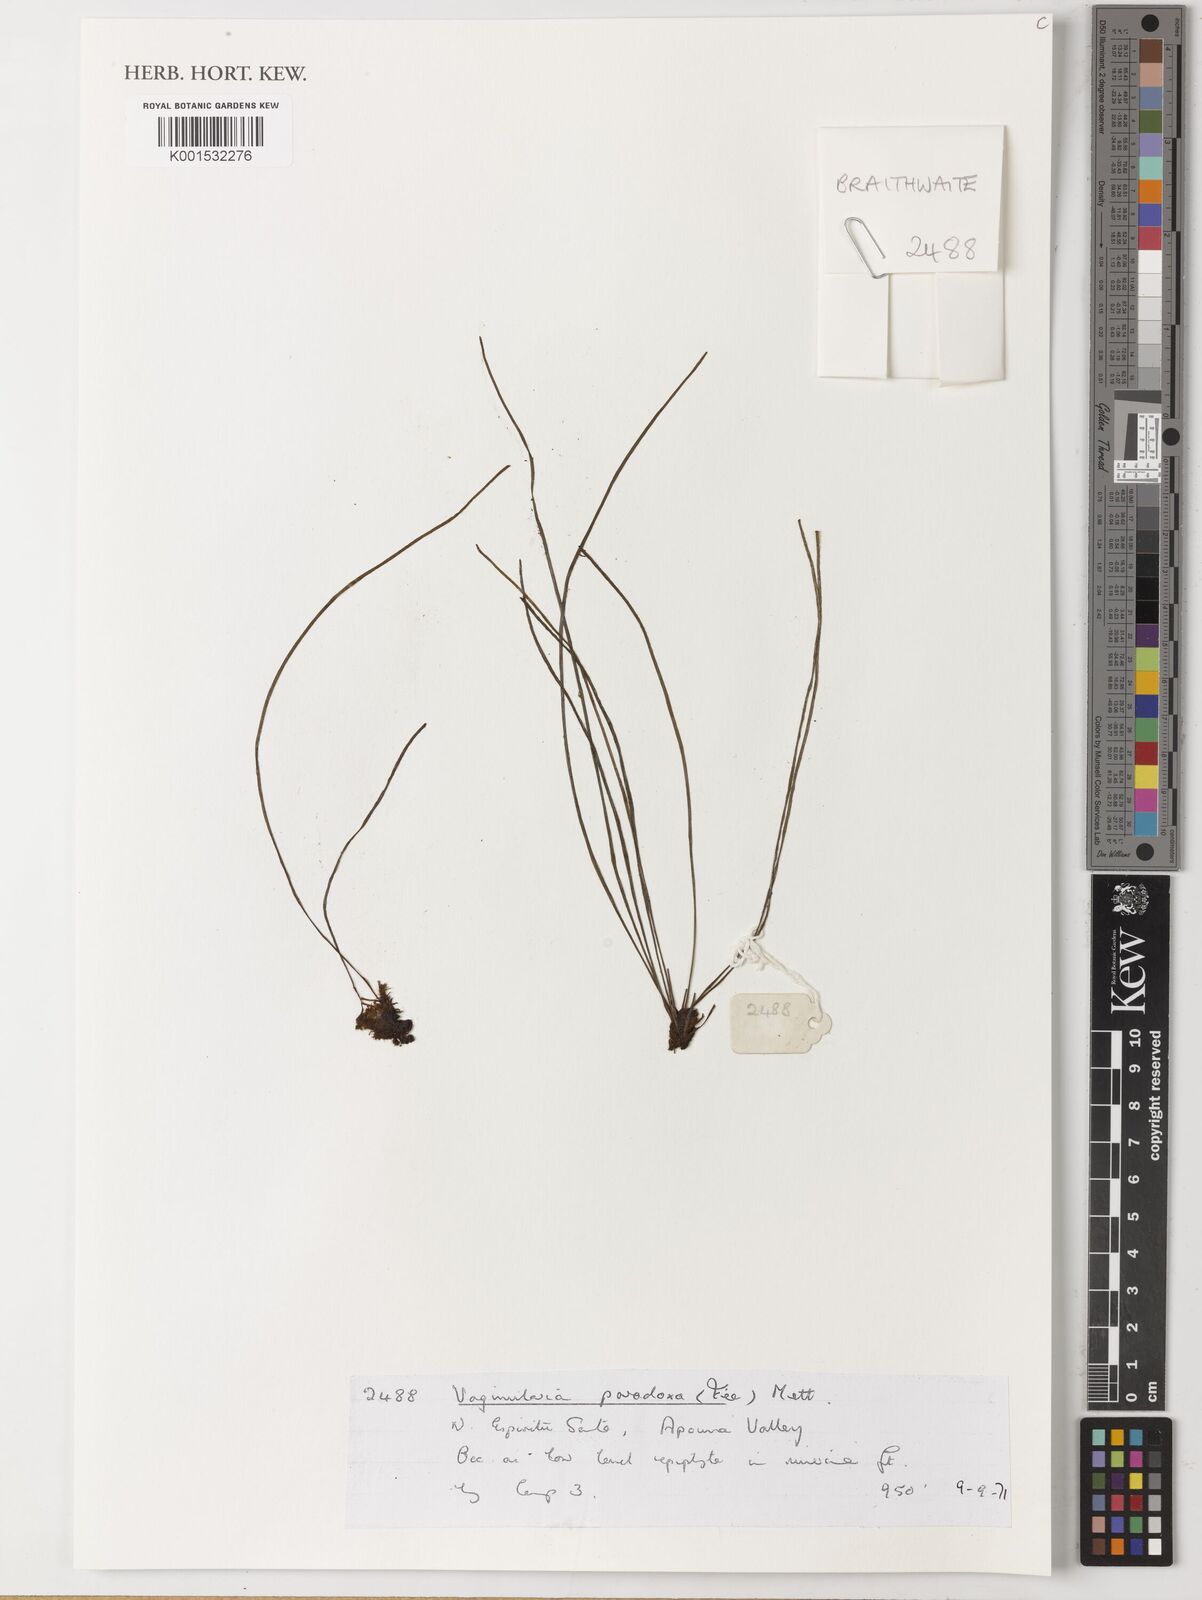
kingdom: Plantae
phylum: Tracheophyta
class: Polypodiopsida
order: Polypodiales
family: Pteridaceae
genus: Vaginularia
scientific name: Vaginularia paradoxa
